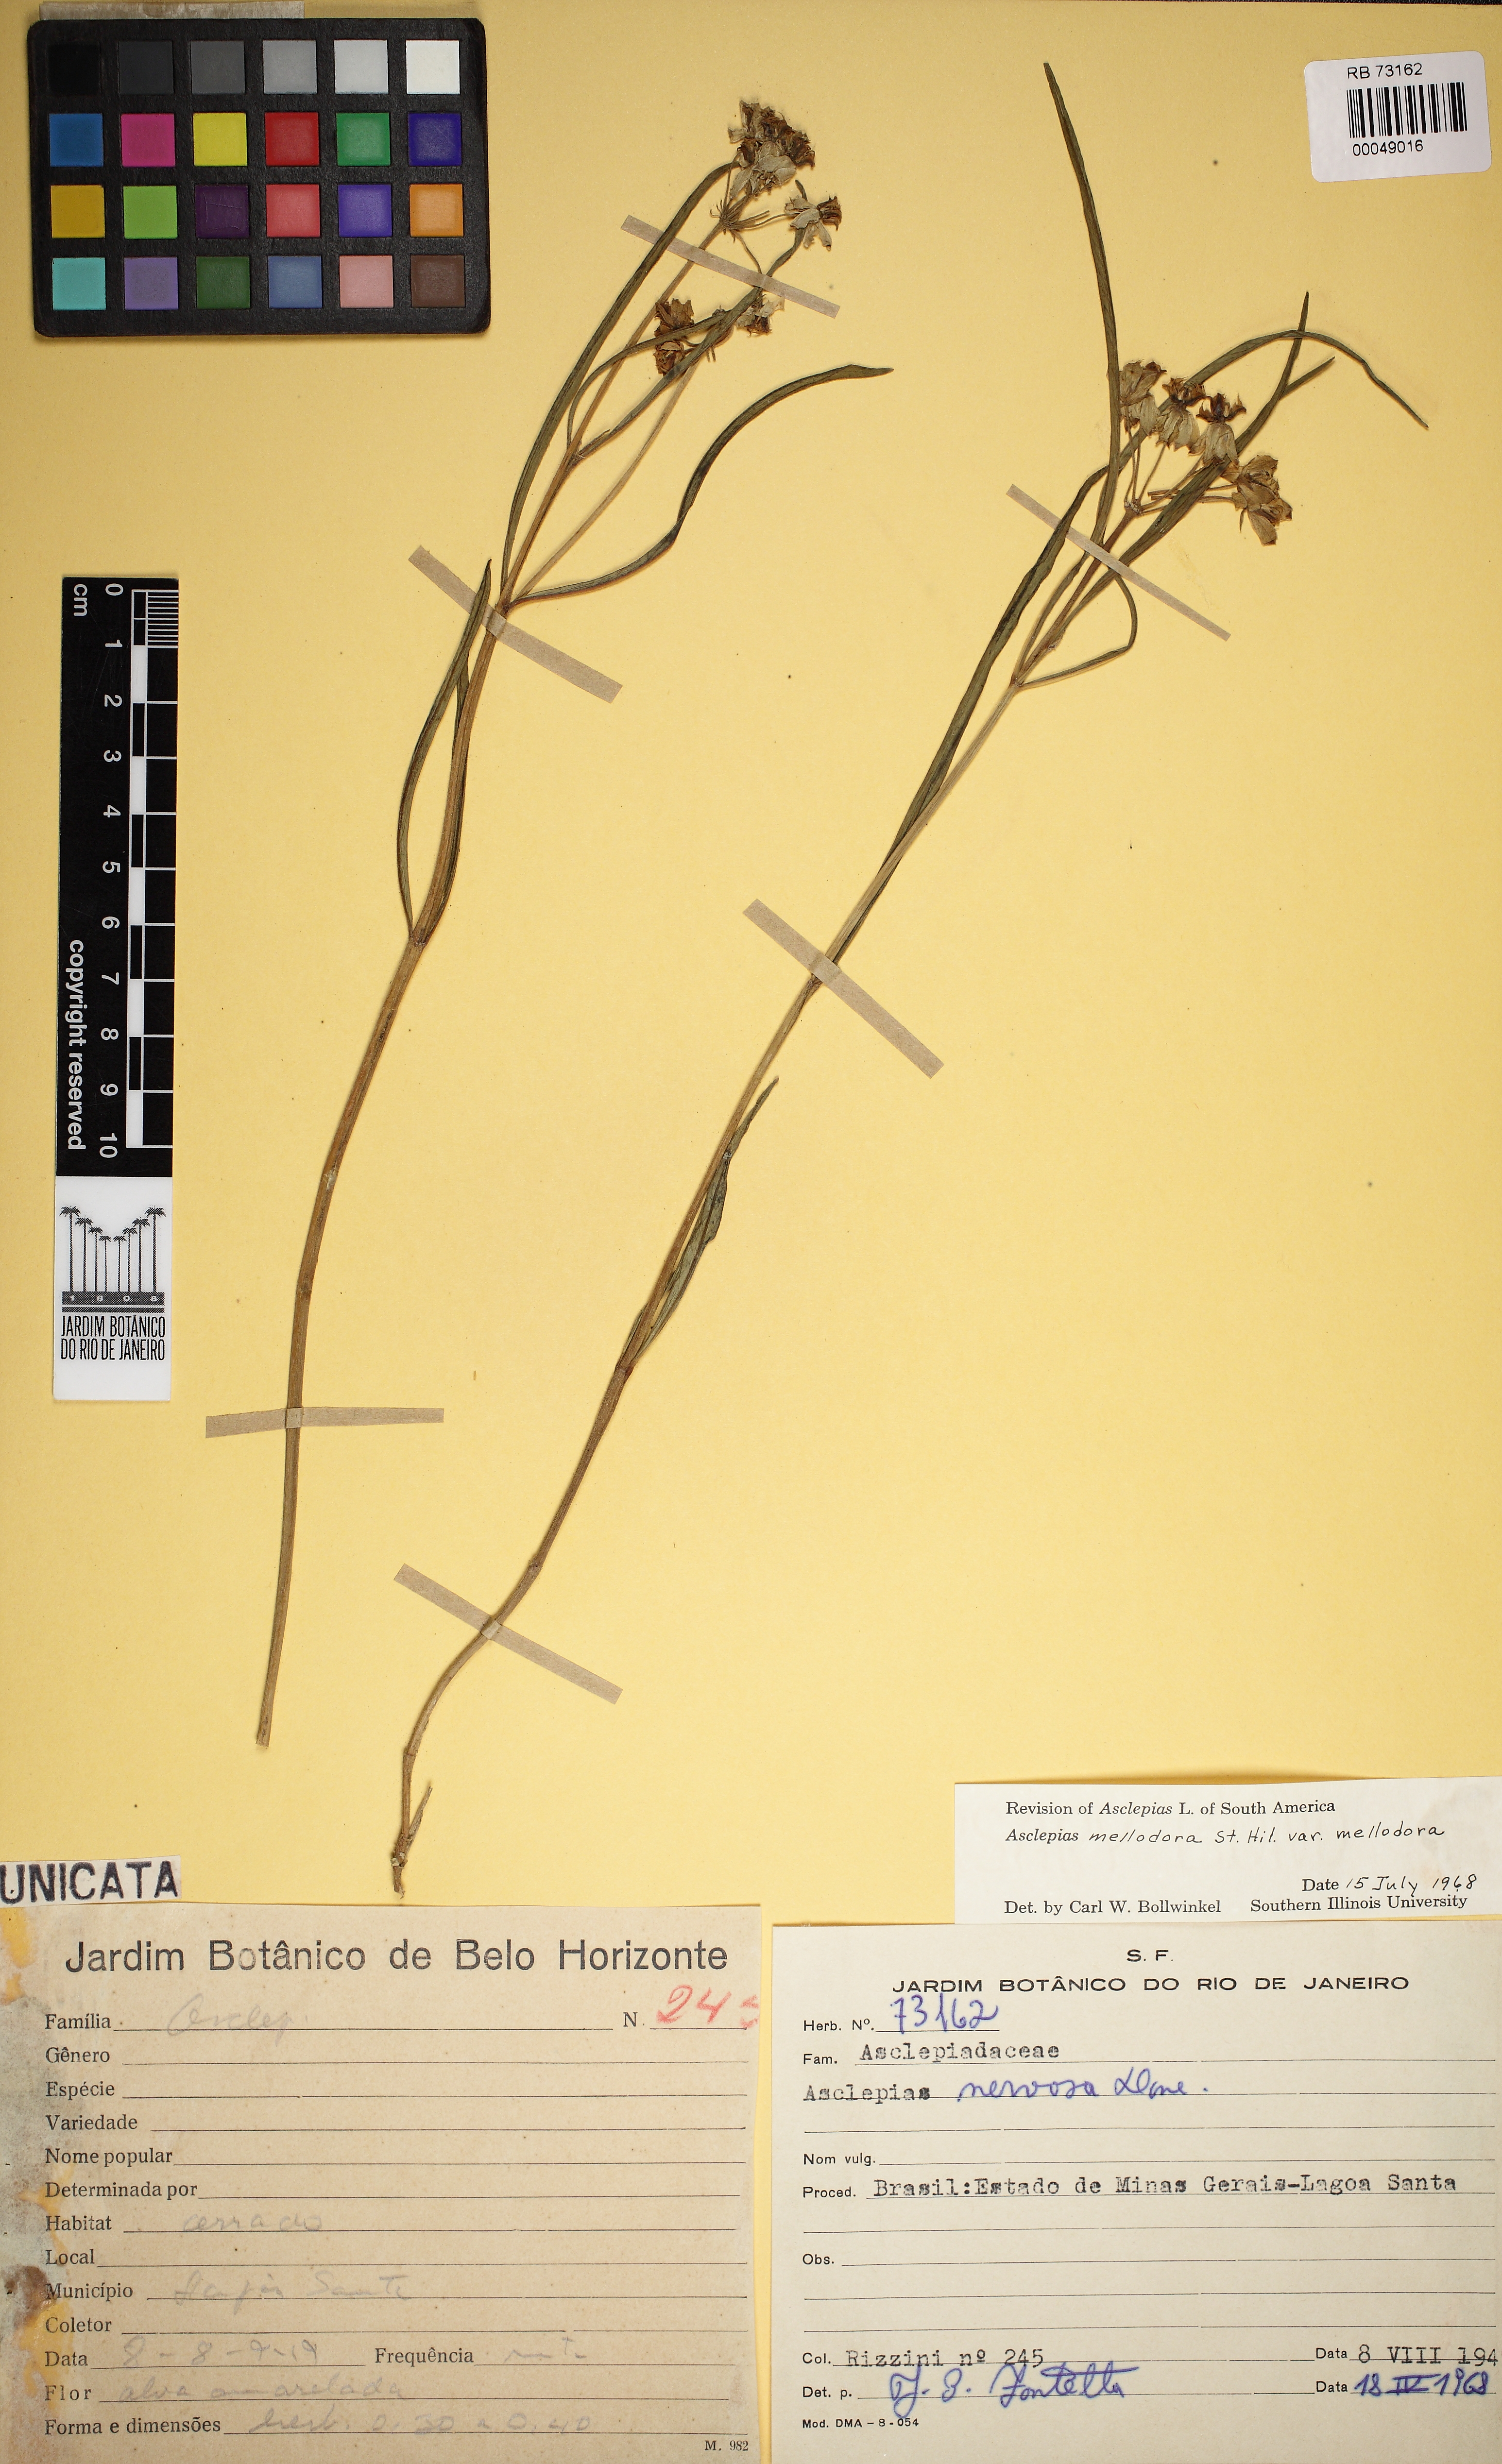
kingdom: Plantae
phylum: Tracheophyta
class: Magnoliopsida
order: Gentianales
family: Apocynaceae
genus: Asclepias
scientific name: Asclepias mellodora
